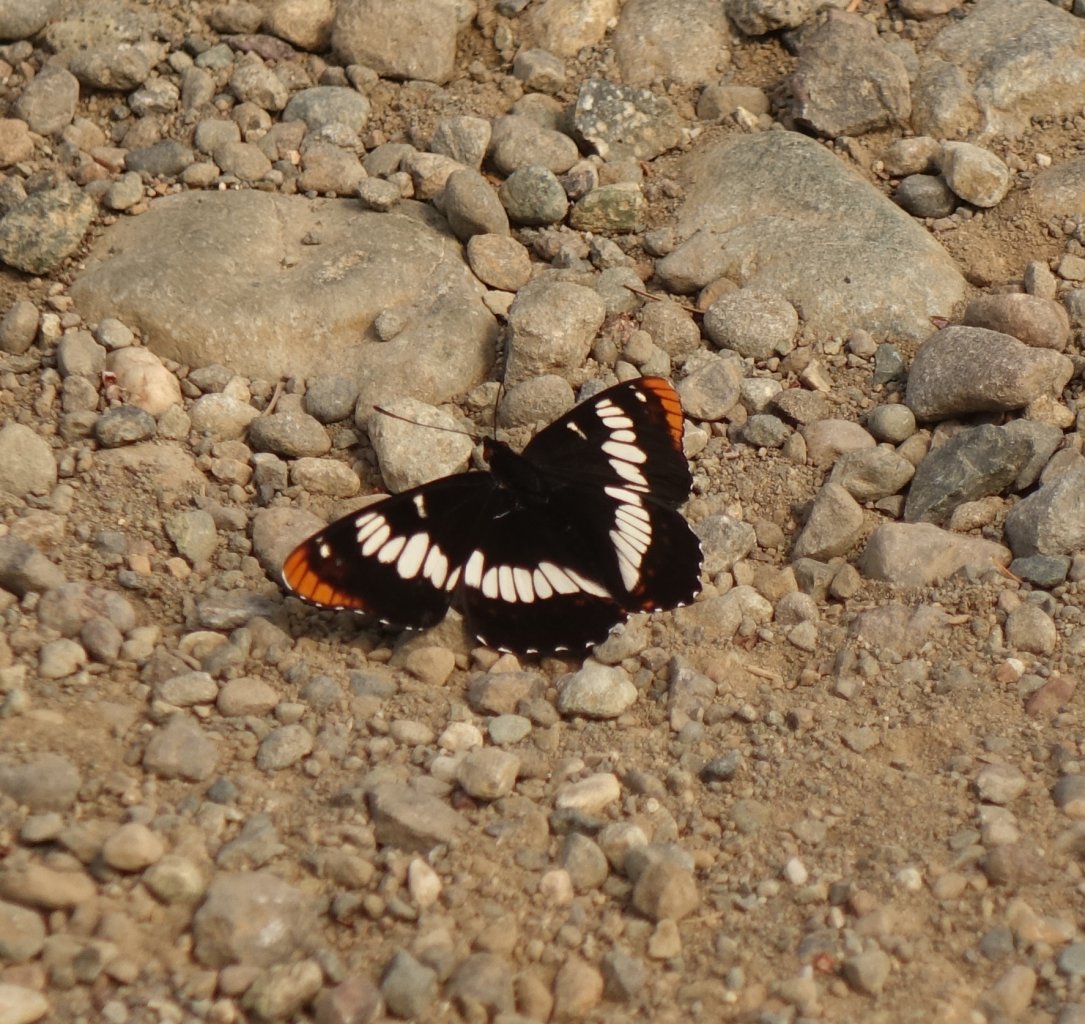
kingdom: Animalia
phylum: Arthropoda
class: Insecta
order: Lepidoptera
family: Nymphalidae
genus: Limenitis
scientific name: Limenitis lorquini
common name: Lorquin's Admiral
